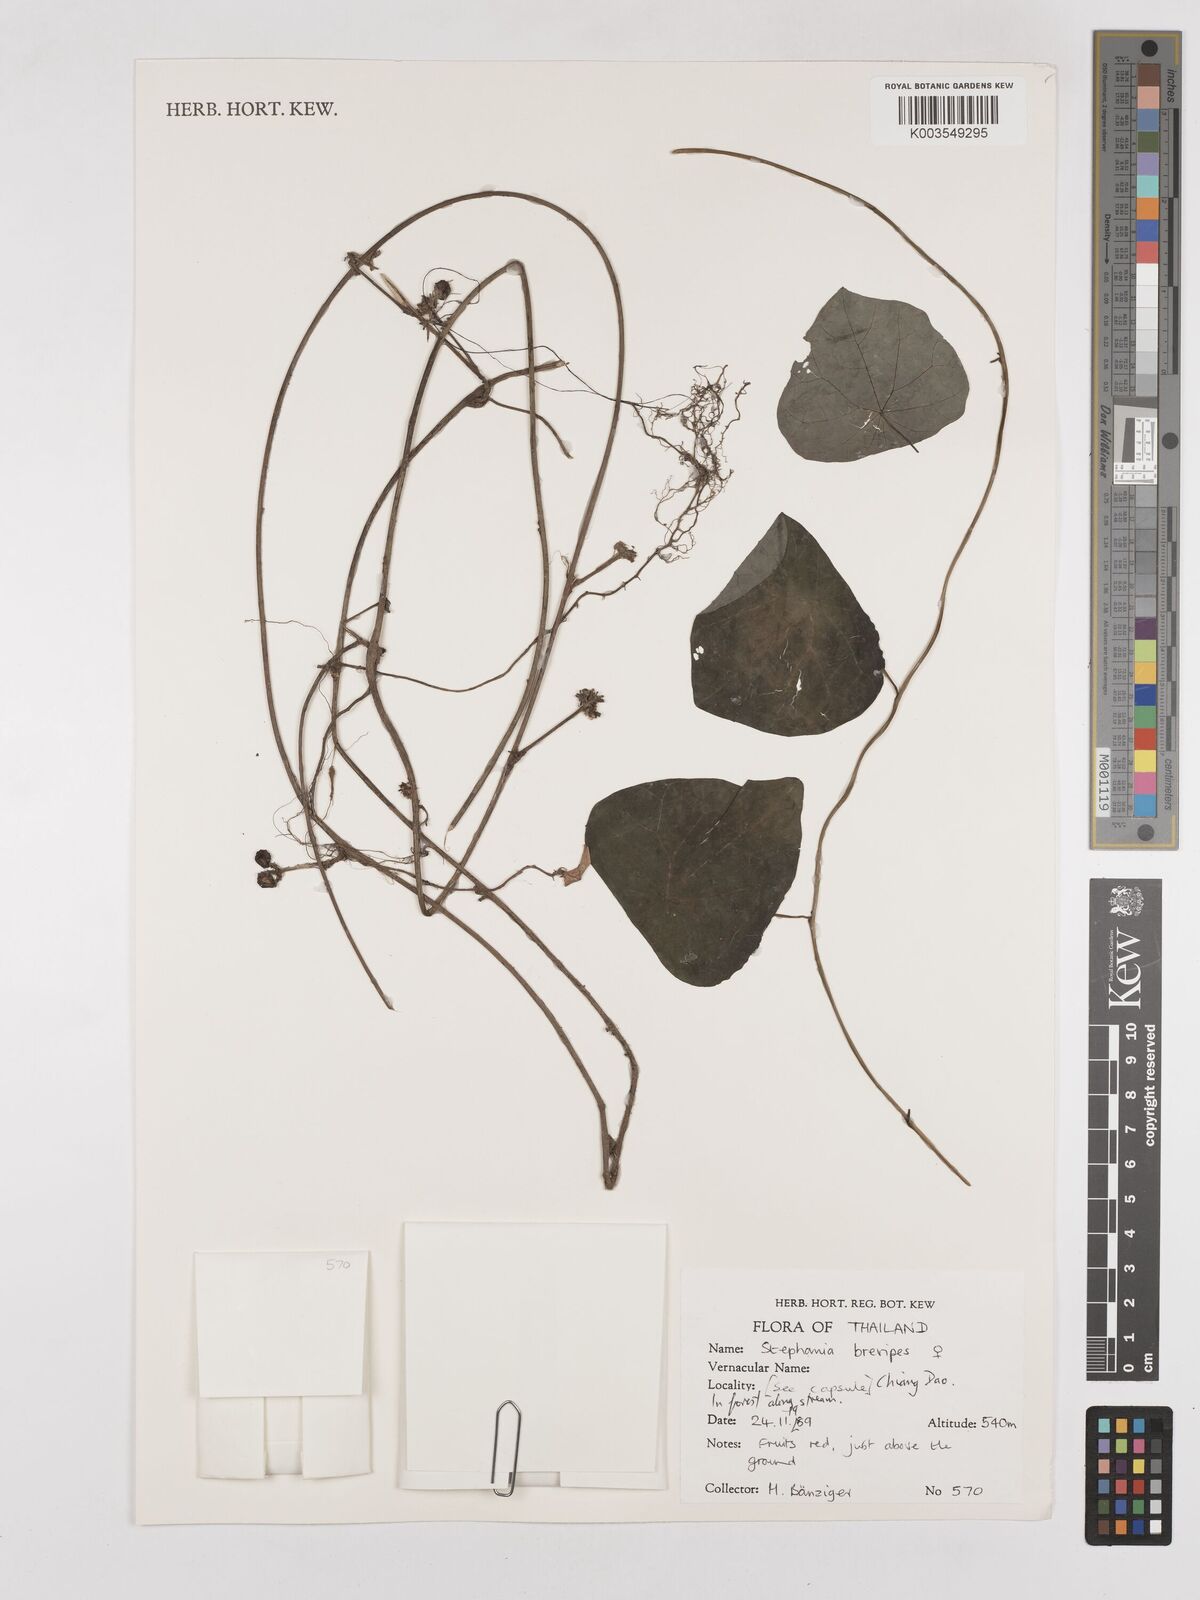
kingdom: Plantae
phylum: Tracheophyta
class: Magnoliopsida
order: Ranunculales
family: Menispermaceae
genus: Stephania
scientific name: Stephania brevipes
